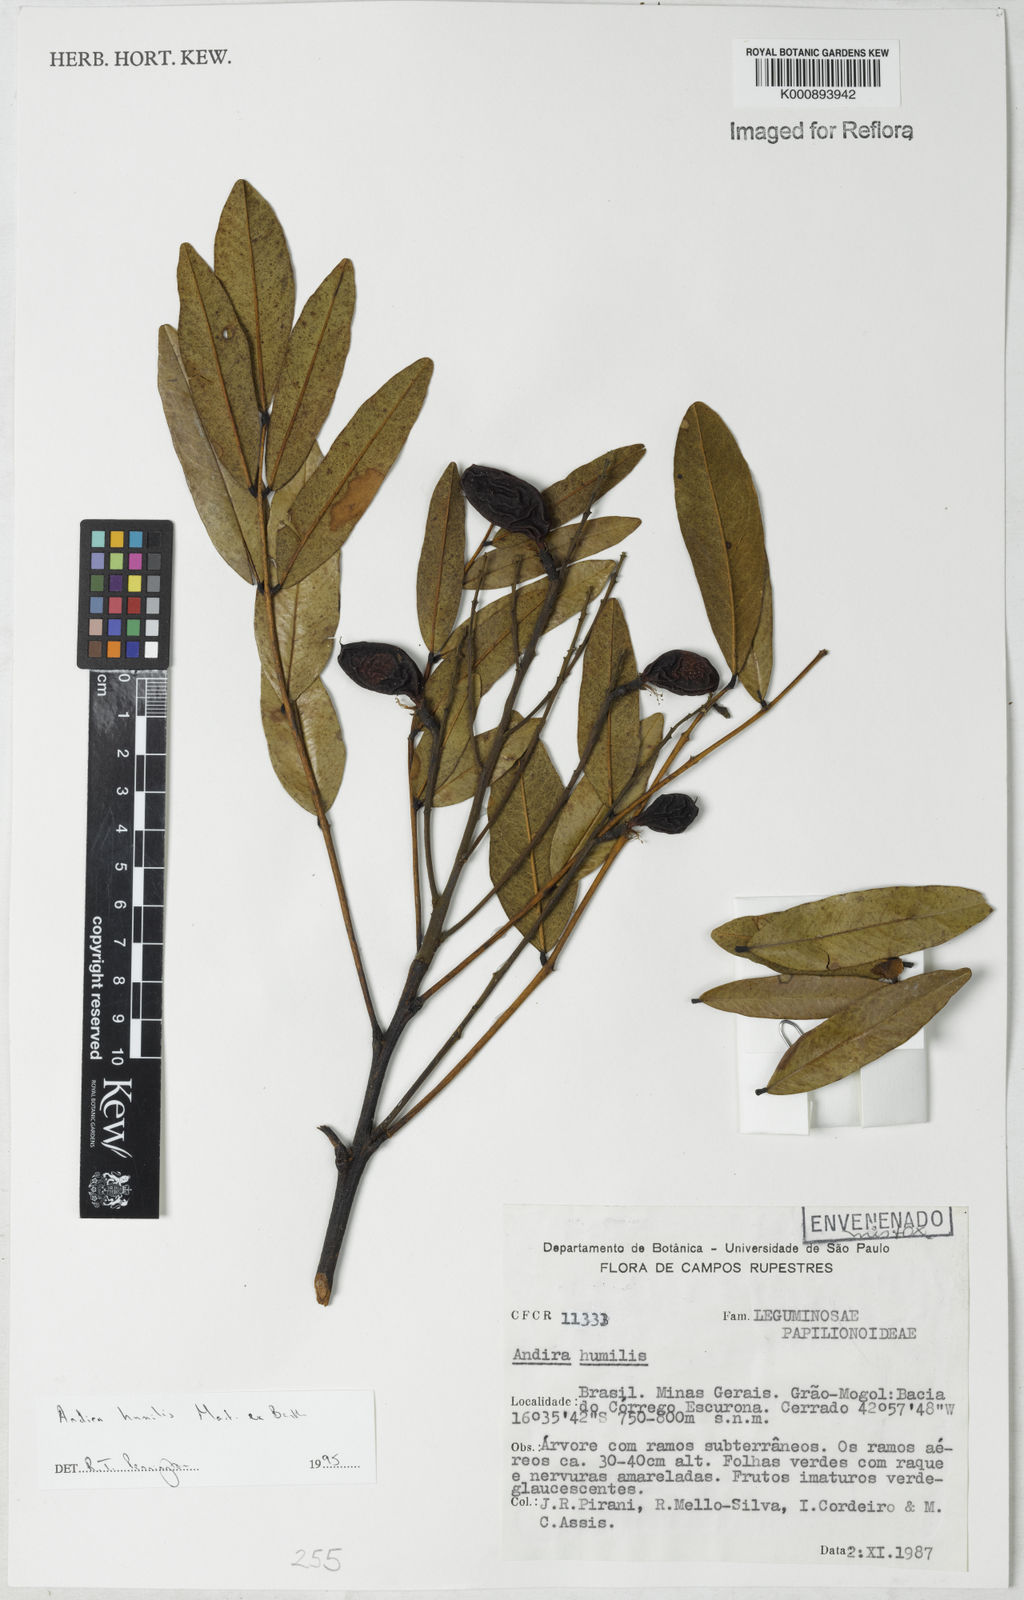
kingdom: Plantae
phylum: Tracheophyta
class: Magnoliopsida
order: Fabales
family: Fabaceae
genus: Andira
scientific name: Andira
